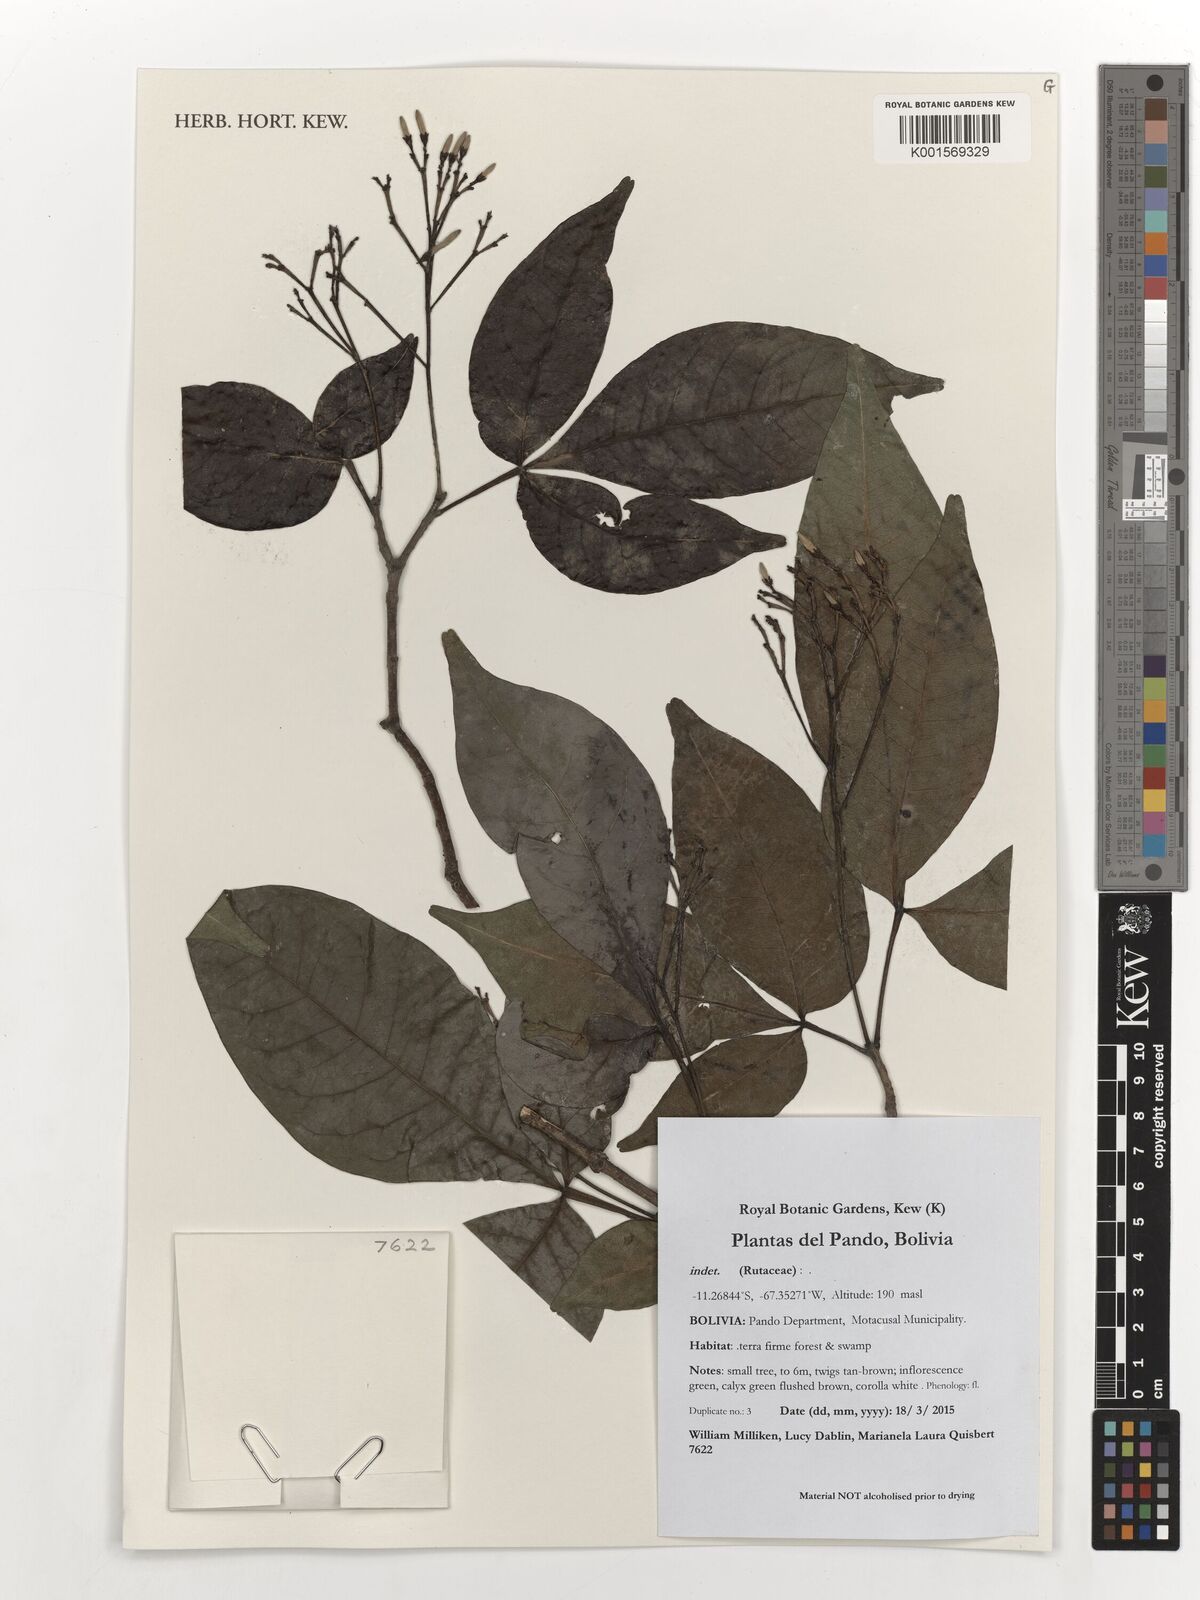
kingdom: Plantae
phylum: Tracheophyta
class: Magnoliopsida
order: Sapindales
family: Rutaceae
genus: Galipea
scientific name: Galipea trifoliata
